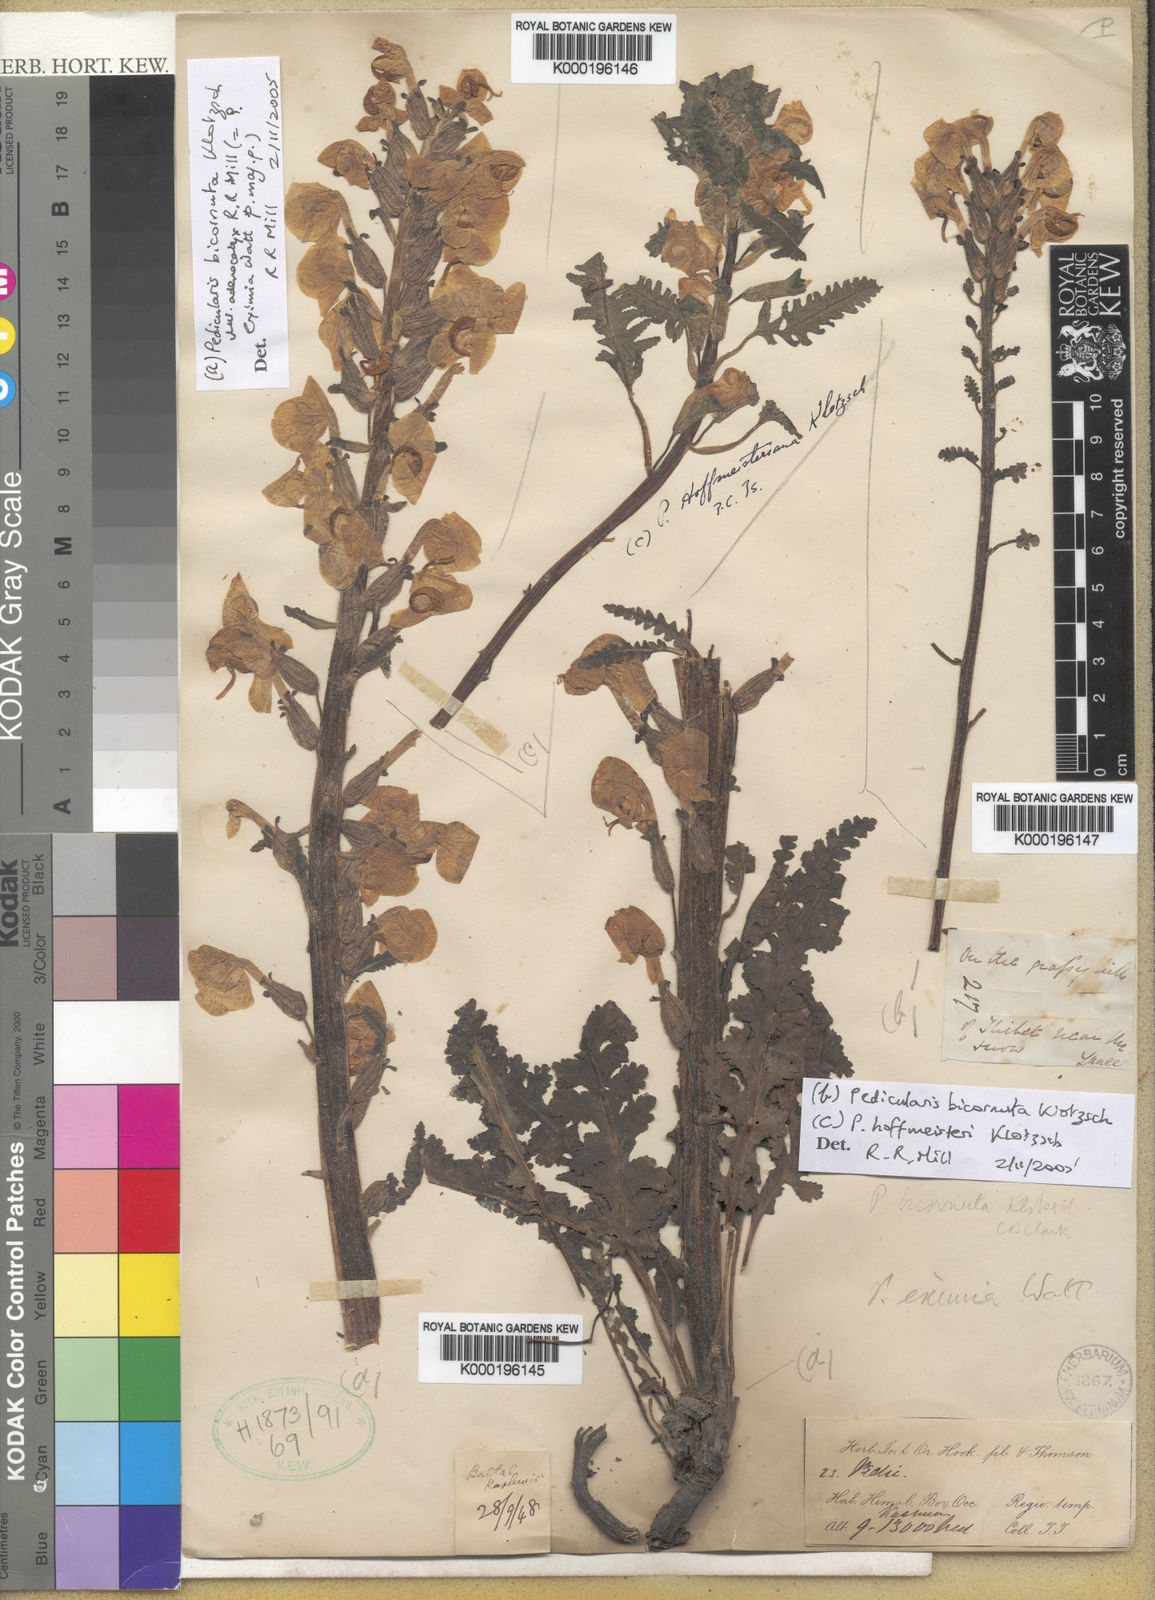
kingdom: Plantae
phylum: Tracheophyta
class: Magnoliopsida
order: Lamiales
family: Orobanchaceae
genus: Pedicularis
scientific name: Pedicularis hoffmeisteri
